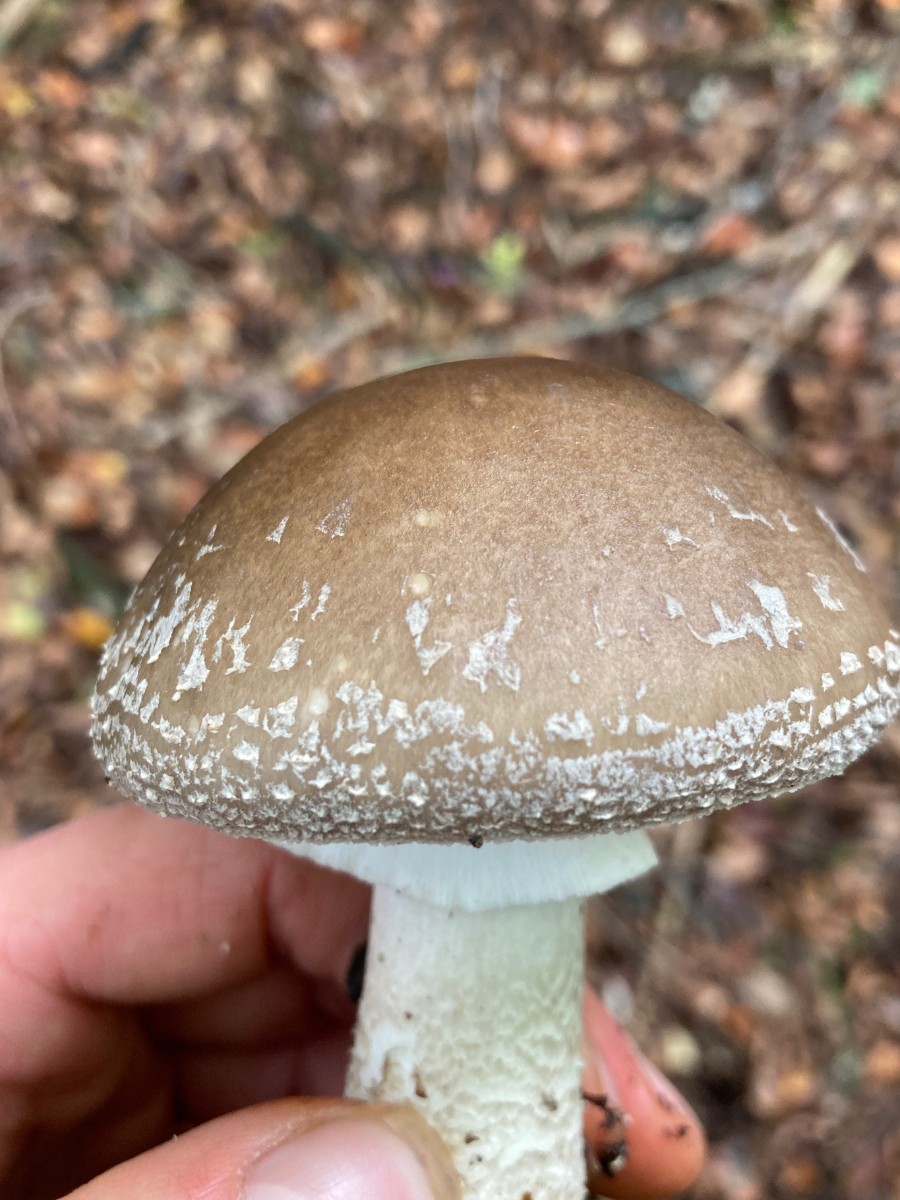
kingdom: Fungi
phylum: Basidiomycota
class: Agaricomycetes
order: Agaricales
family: Amanitaceae
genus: Amanita
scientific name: Amanita pantherina
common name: panter-fluesvamp
